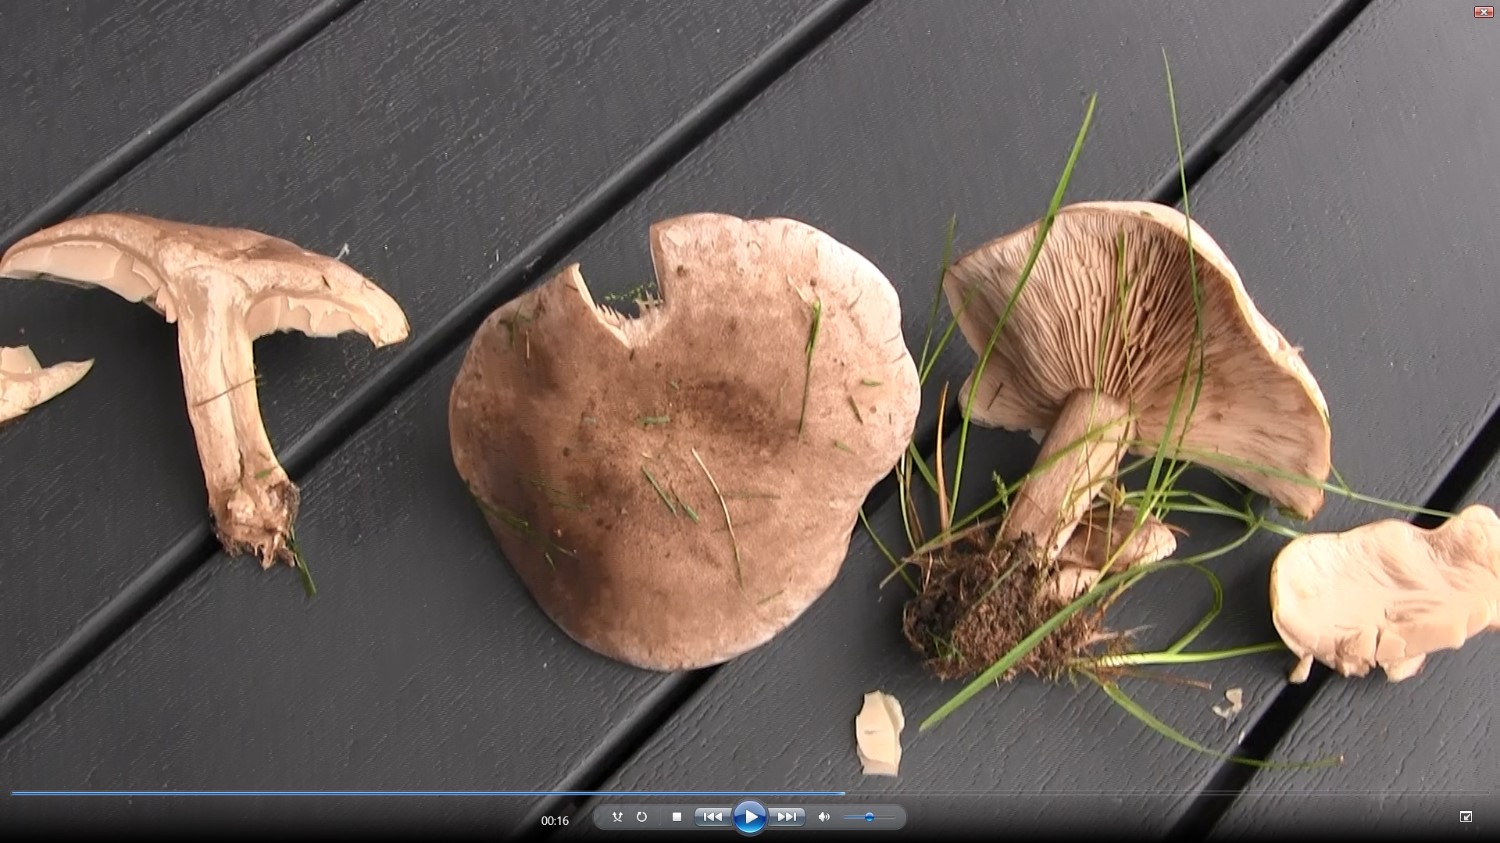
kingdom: Fungi
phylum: Basidiomycota
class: Agaricomycetes
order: Agaricales
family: Tricholomataceae
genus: Lepista
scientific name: Lepista panaeolus
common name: marmoreret hekseringshat
